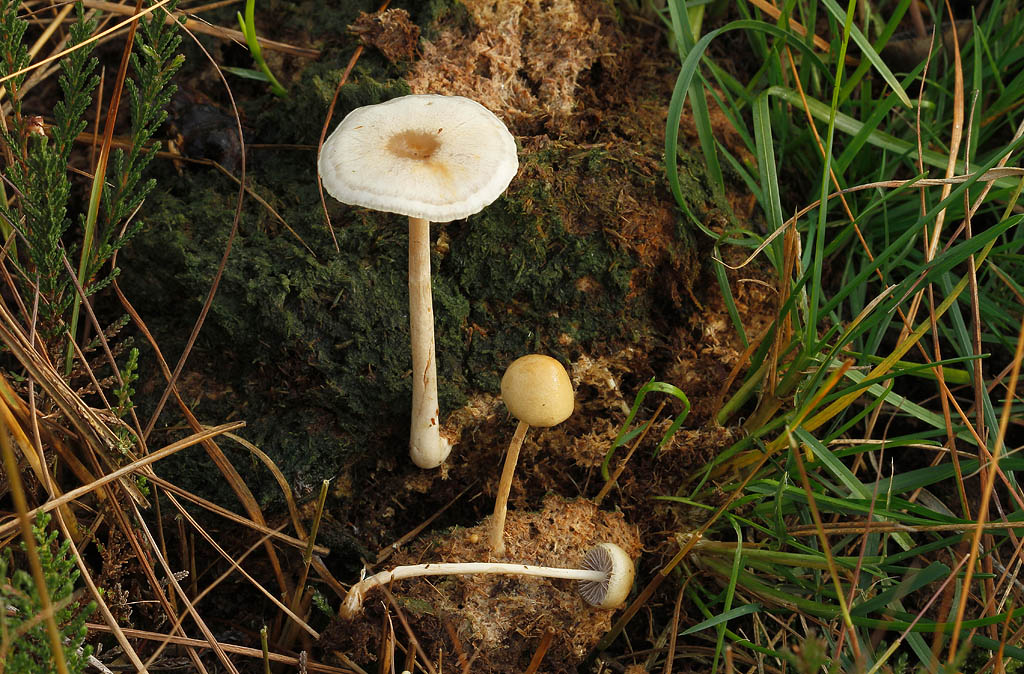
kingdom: Fungi
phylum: Basidiomycota
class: Agaricomycetes
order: Agaricales
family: Strophariaceae
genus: Protostropharia
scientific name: Protostropharia semiglobata
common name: halvkugleformet bredblad
